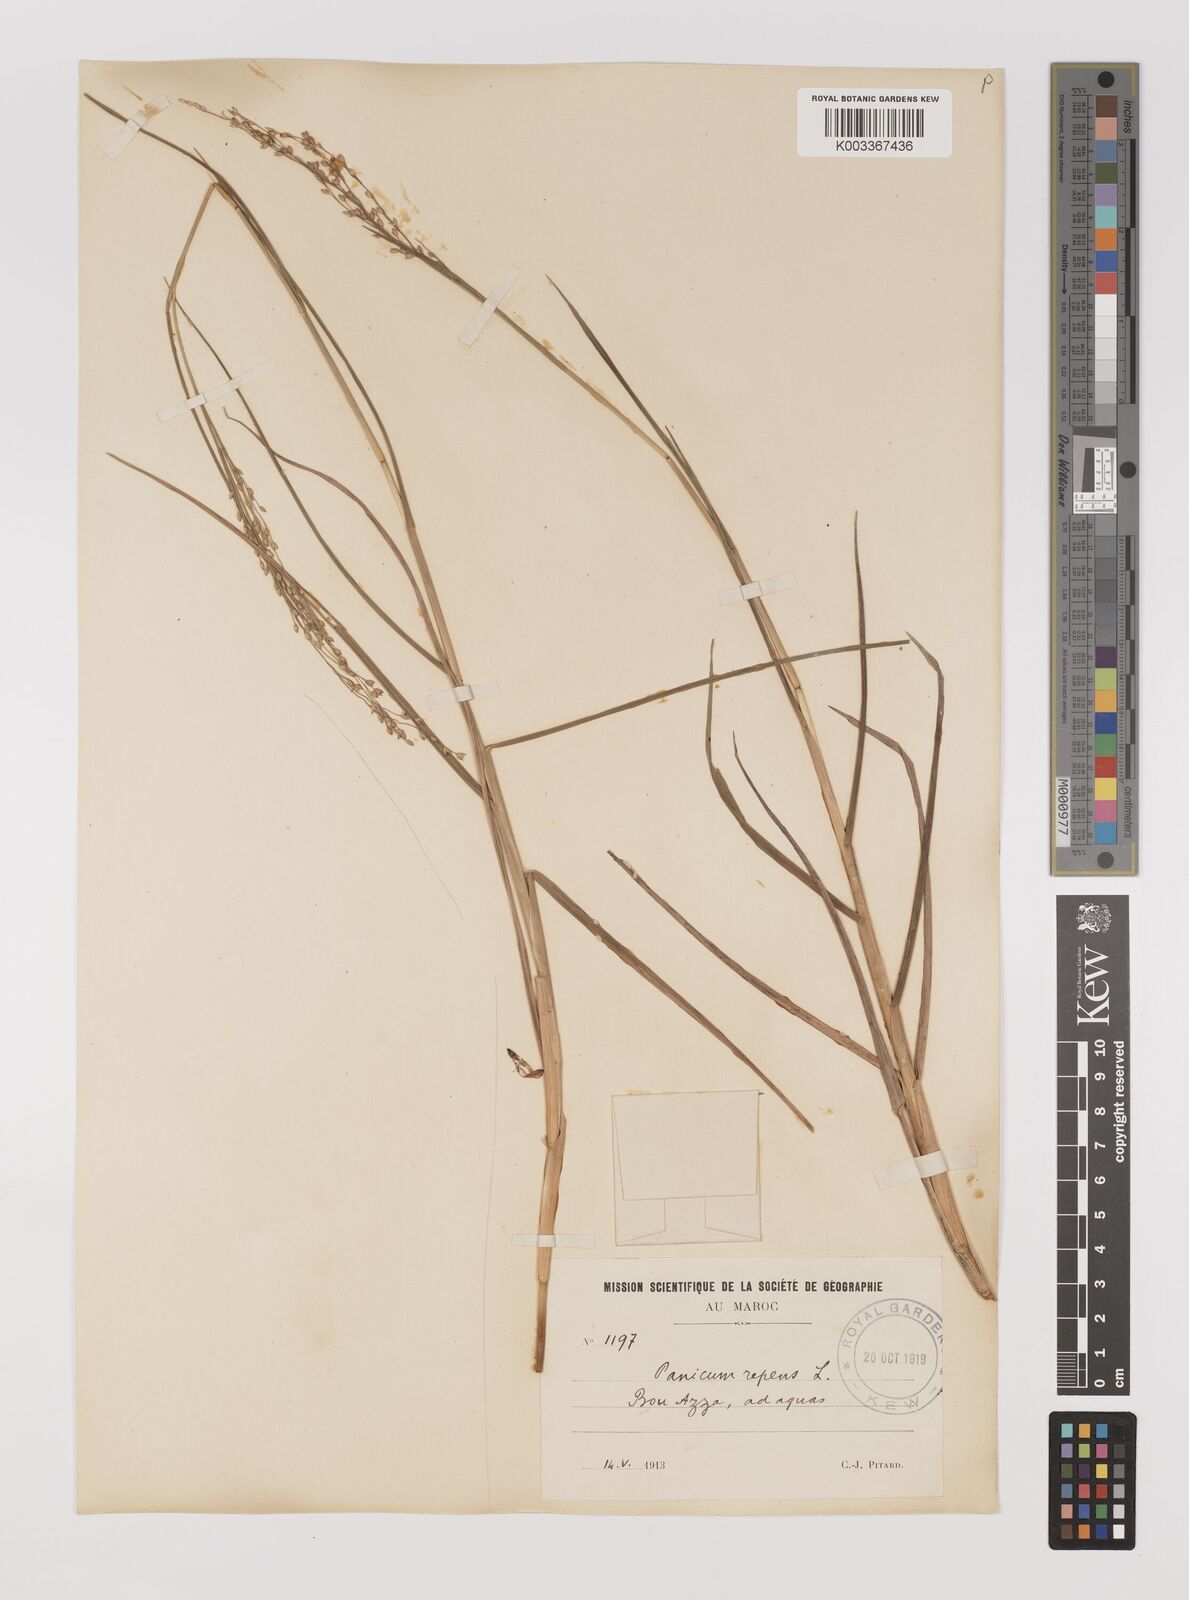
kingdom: Plantae
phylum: Tracheophyta
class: Liliopsida
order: Poales
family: Poaceae
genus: Panicum
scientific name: Panicum repens
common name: Torpedo grass
